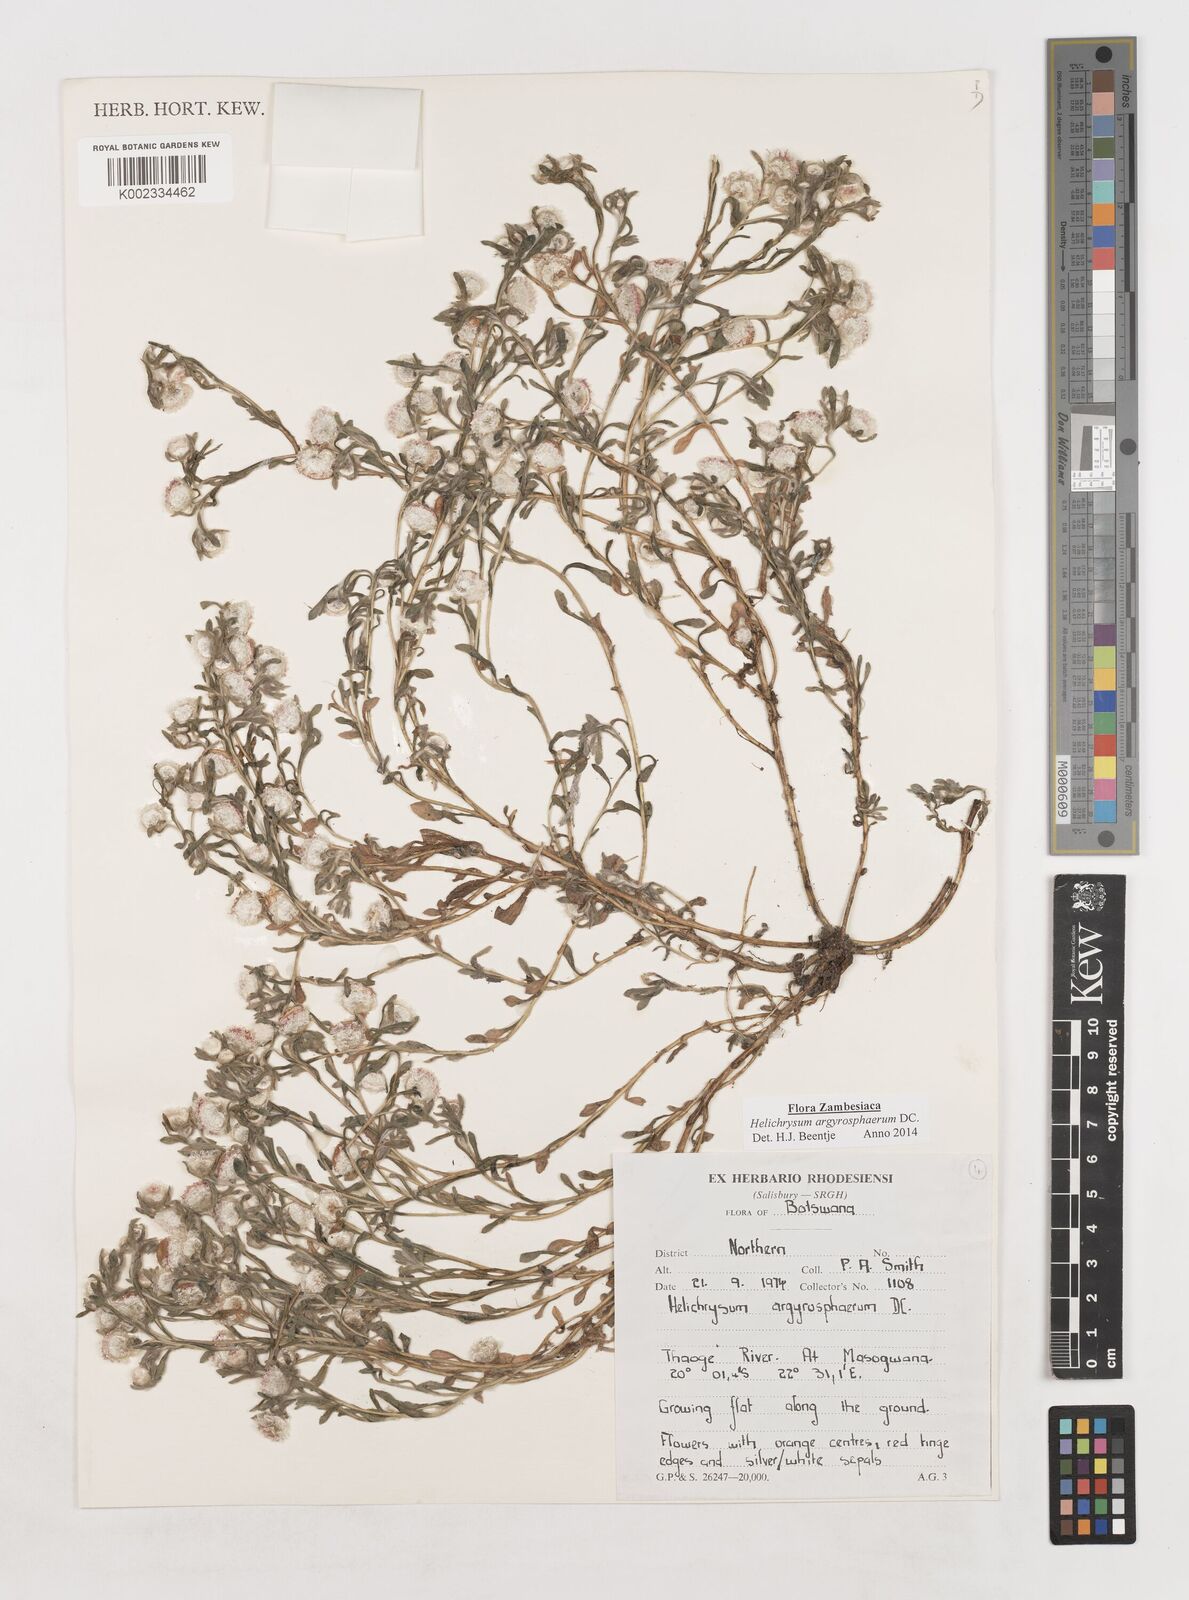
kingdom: Plantae
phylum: Tracheophyta
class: Magnoliopsida
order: Asterales
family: Asteraceae
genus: Helichrysum
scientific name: Helichrysum argyrosphaerum
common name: Wild everlasting
